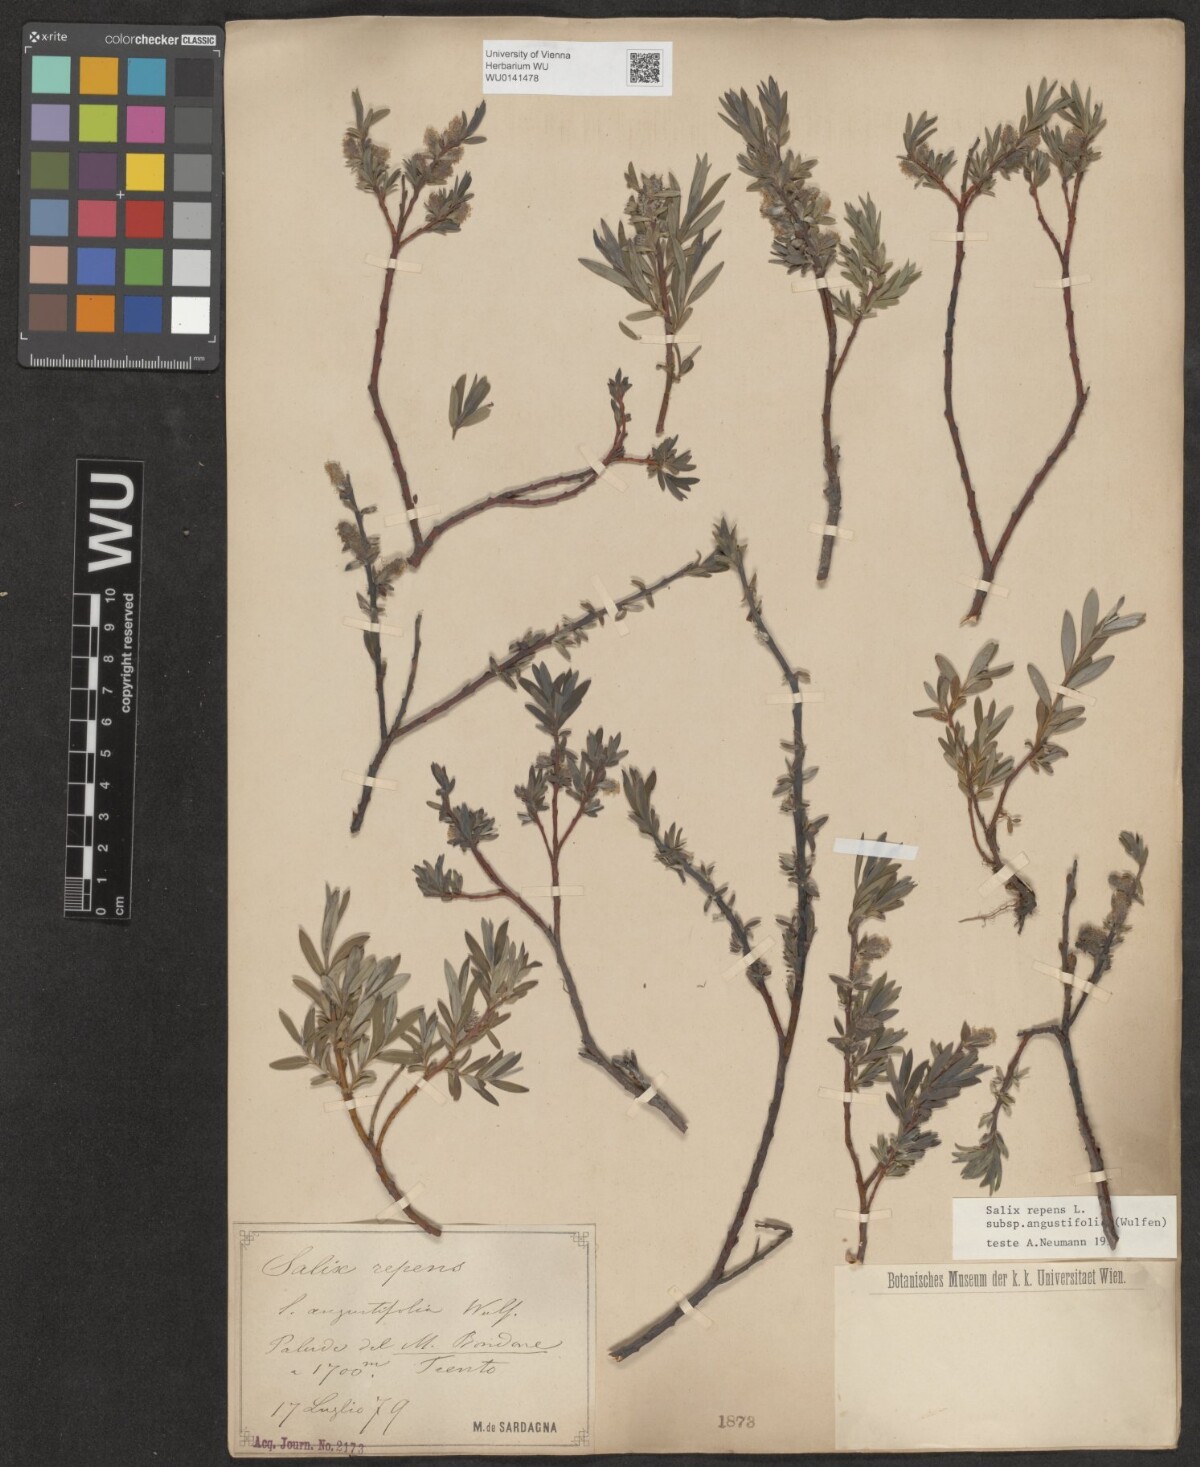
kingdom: Plantae
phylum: Tracheophyta
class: Magnoliopsida
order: Malpighiales
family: Salicaceae
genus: Salix
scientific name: Salix rosmarinifolia
